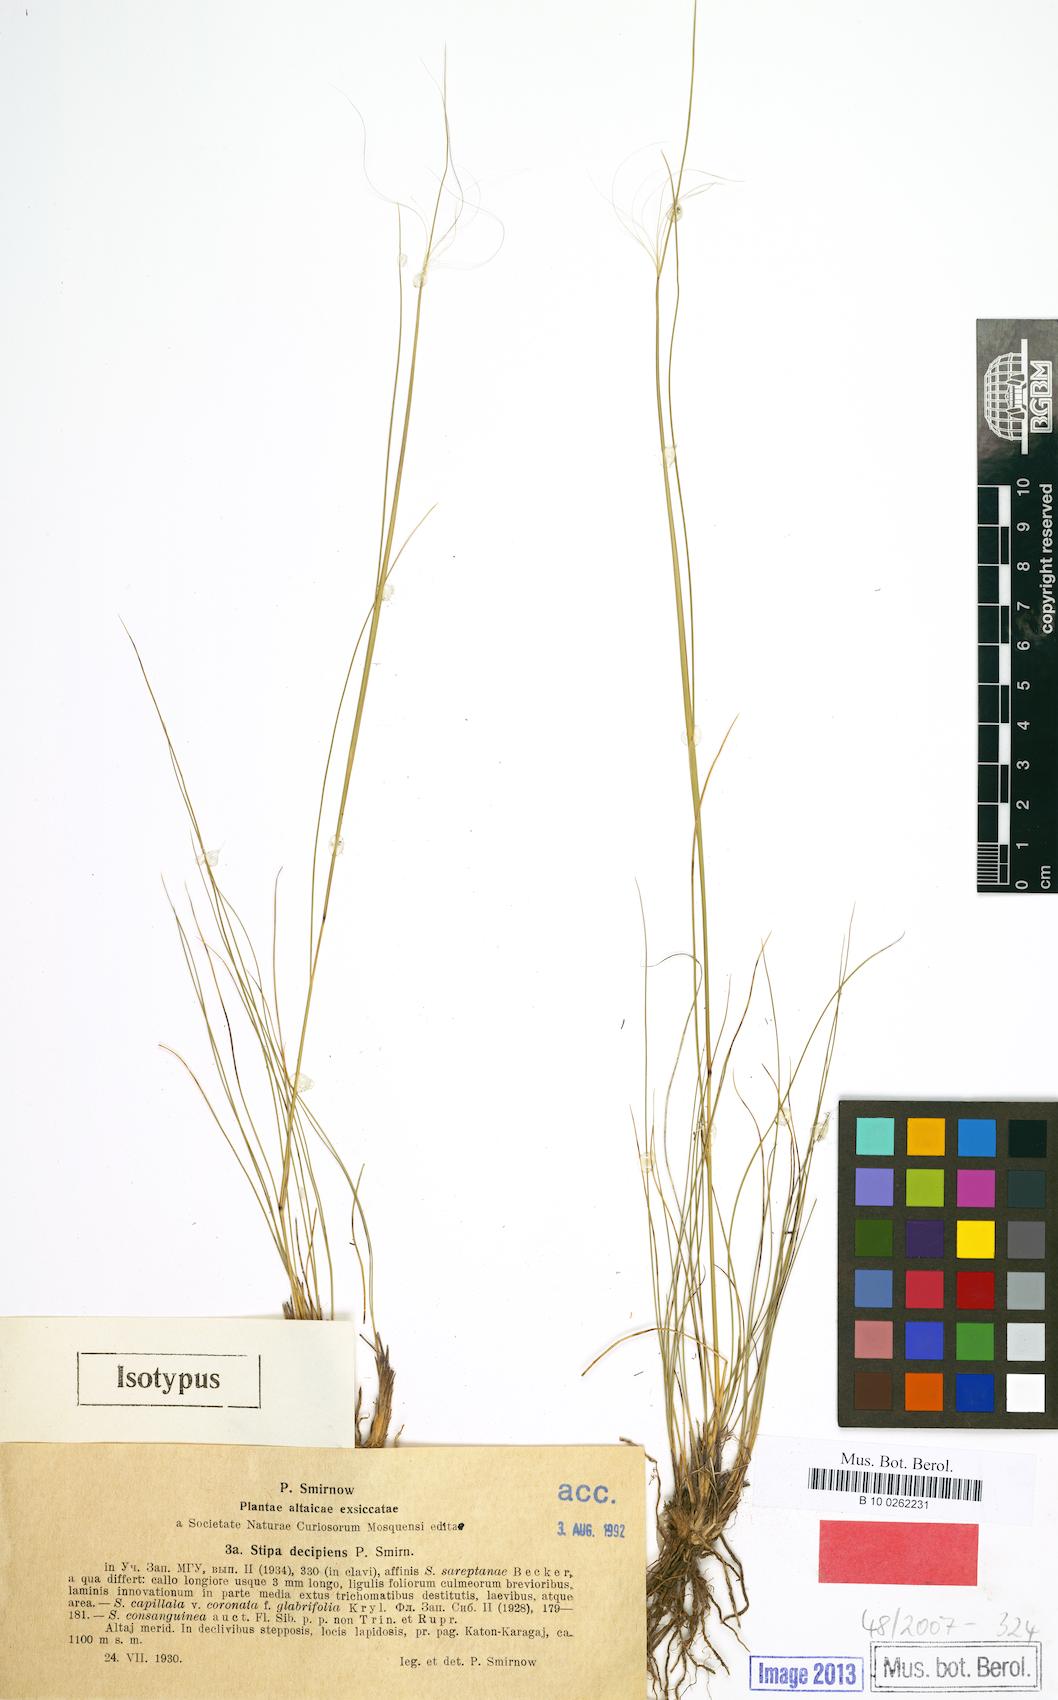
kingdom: Plantae
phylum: Tracheophyta
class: Liliopsida
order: Poales
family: Poaceae
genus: Stipa
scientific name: Stipa krylovii
